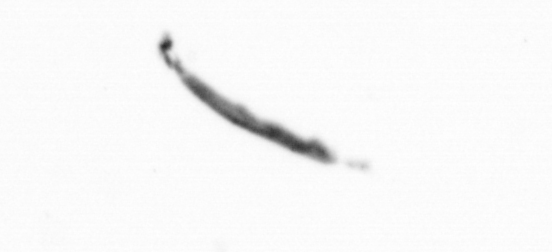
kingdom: Bacteria
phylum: Cyanobacteria
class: Cyanobacteriia
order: Cyanobacteriales
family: Microcoleaceae
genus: Trichodesmium
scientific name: Trichodesmium
